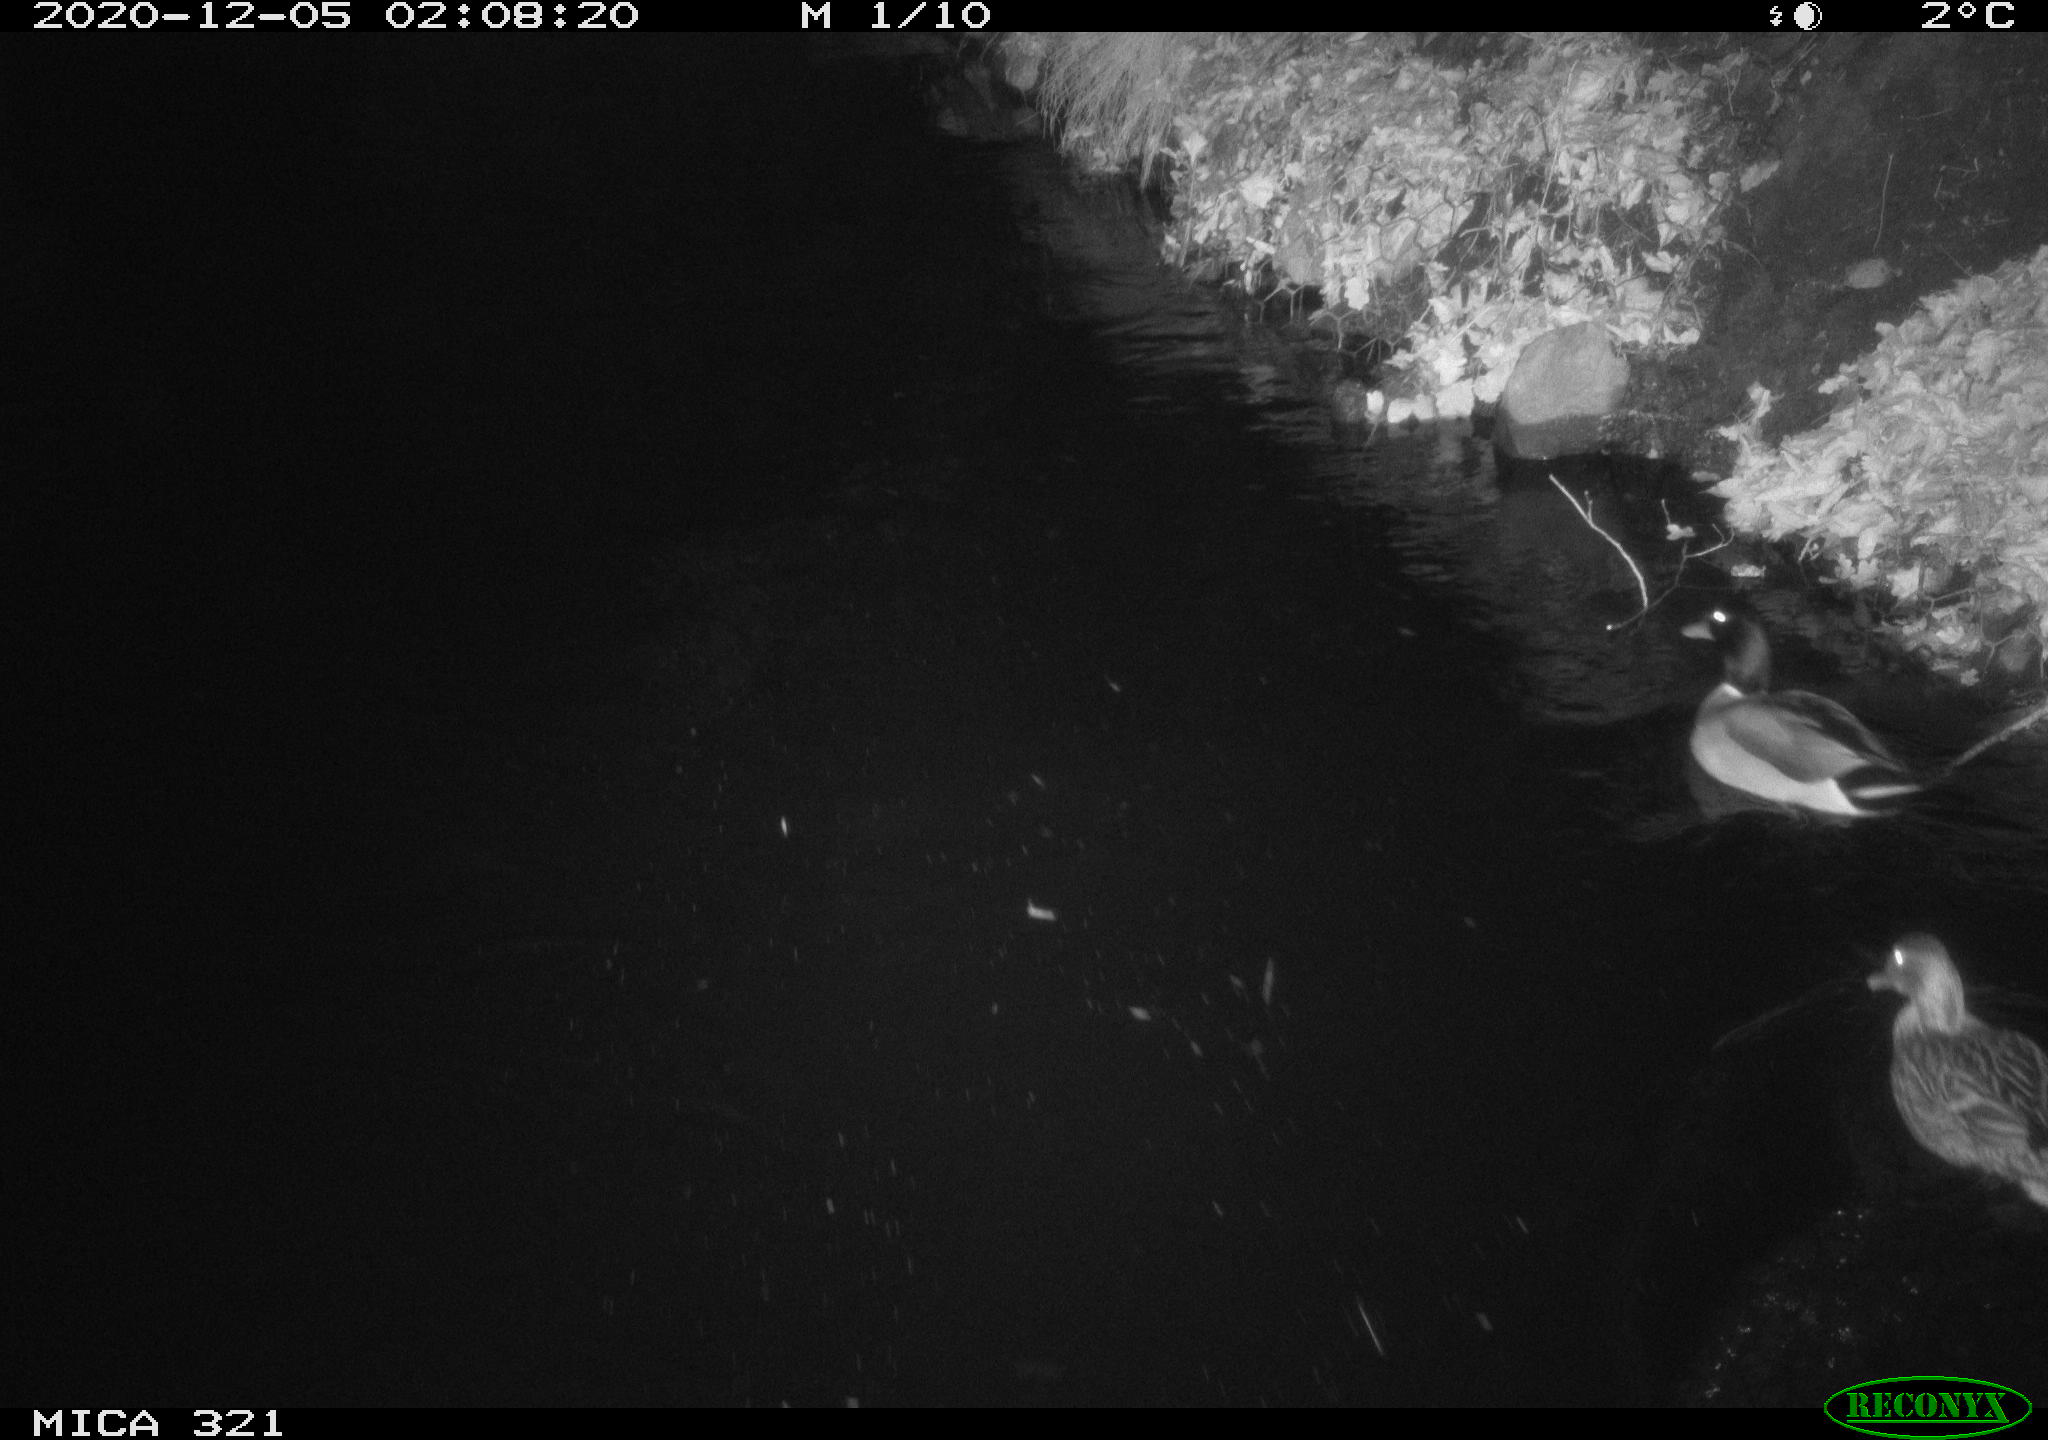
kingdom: Animalia
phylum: Chordata
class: Aves
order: Anseriformes
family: Anatidae
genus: Anas
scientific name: Anas platyrhynchos
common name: Mallard
